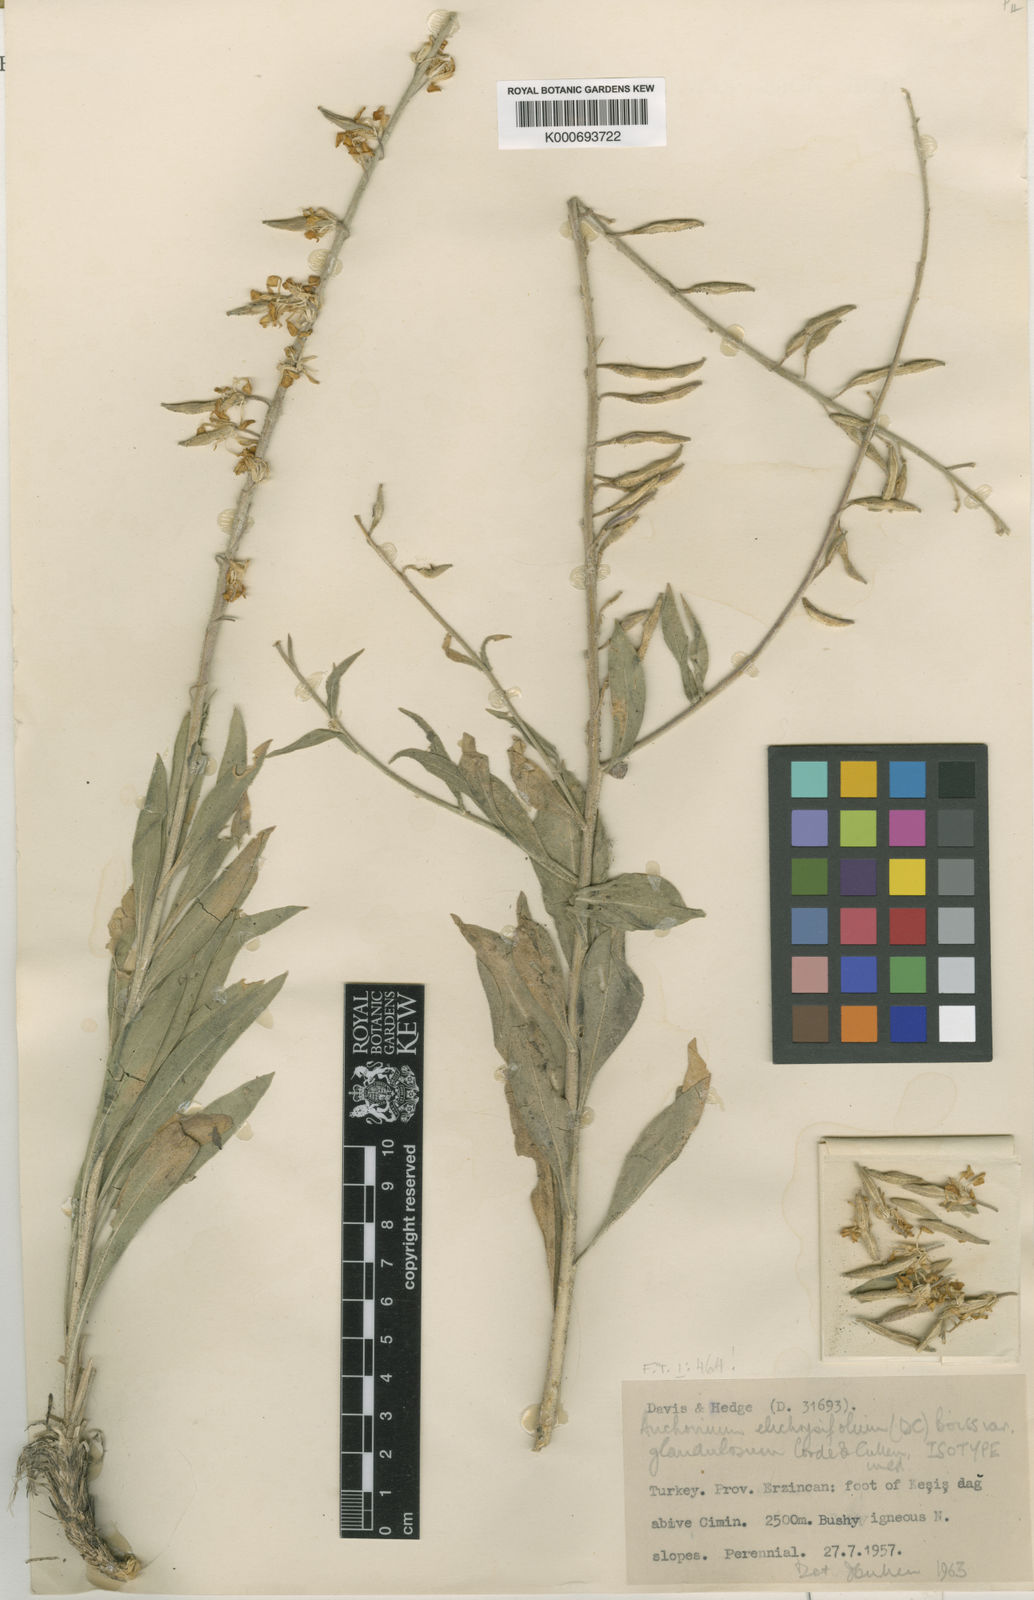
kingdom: Plantae
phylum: Tracheophyta
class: Magnoliopsida
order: Brassicales
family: Brassicaceae
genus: Anchonium
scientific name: Anchonium elichrysifolium
